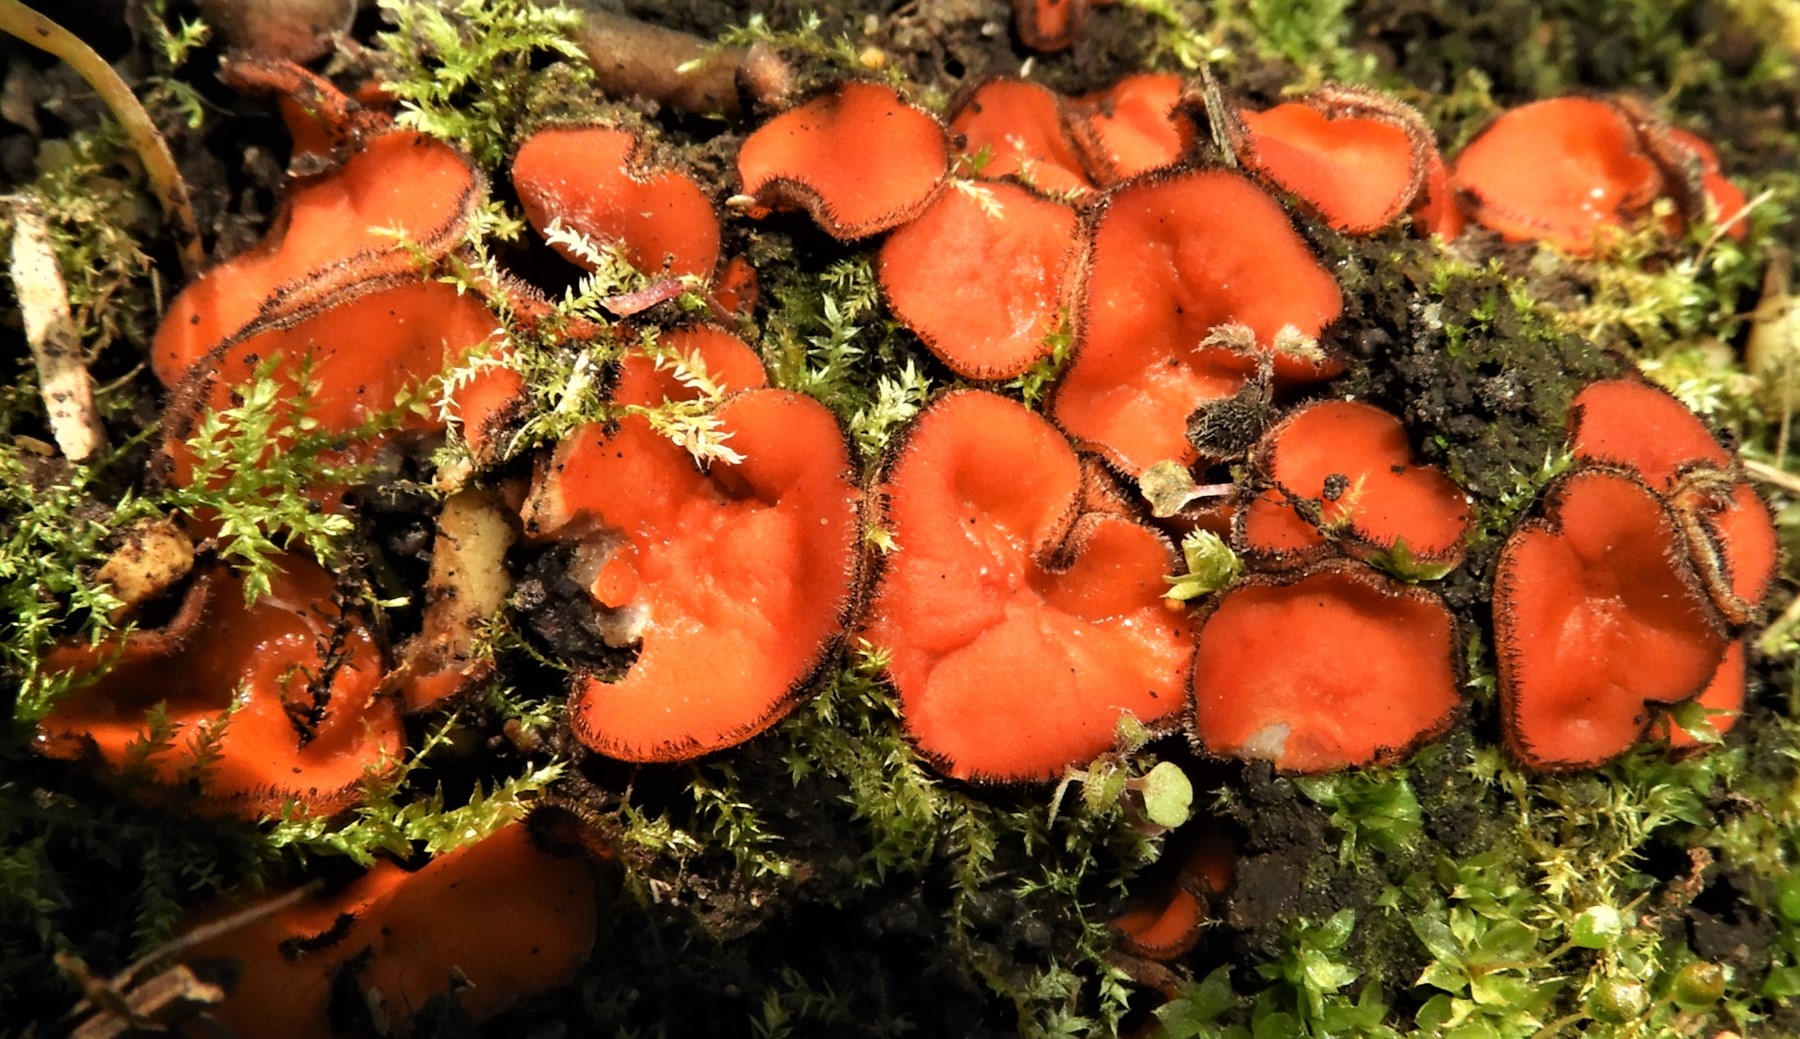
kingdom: Fungi
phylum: Ascomycota
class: Pezizomycetes
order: Pezizales
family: Pyronemataceae
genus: Scutellinia
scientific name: Scutellinia
